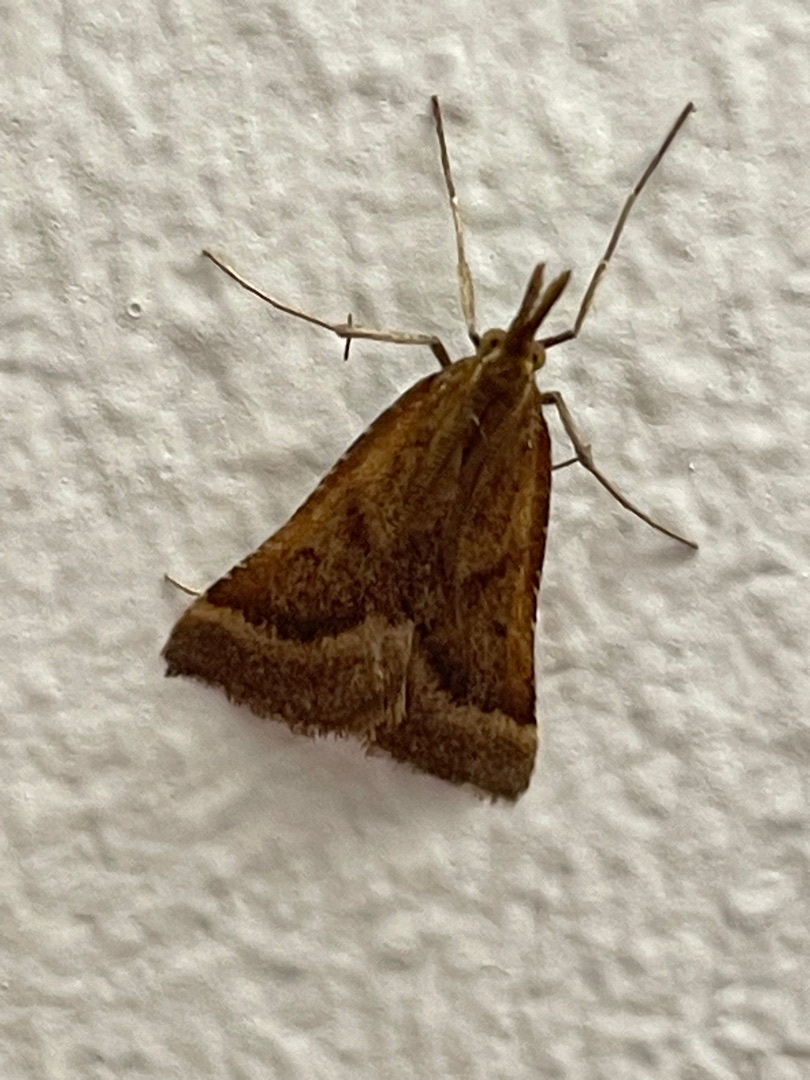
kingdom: Animalia
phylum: Arthropoda
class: Insecta
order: Lepidoptera
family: Pyralidae
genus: Synaphe
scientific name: Synaphe punctalis
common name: Spidsvinget moshalvmøl
